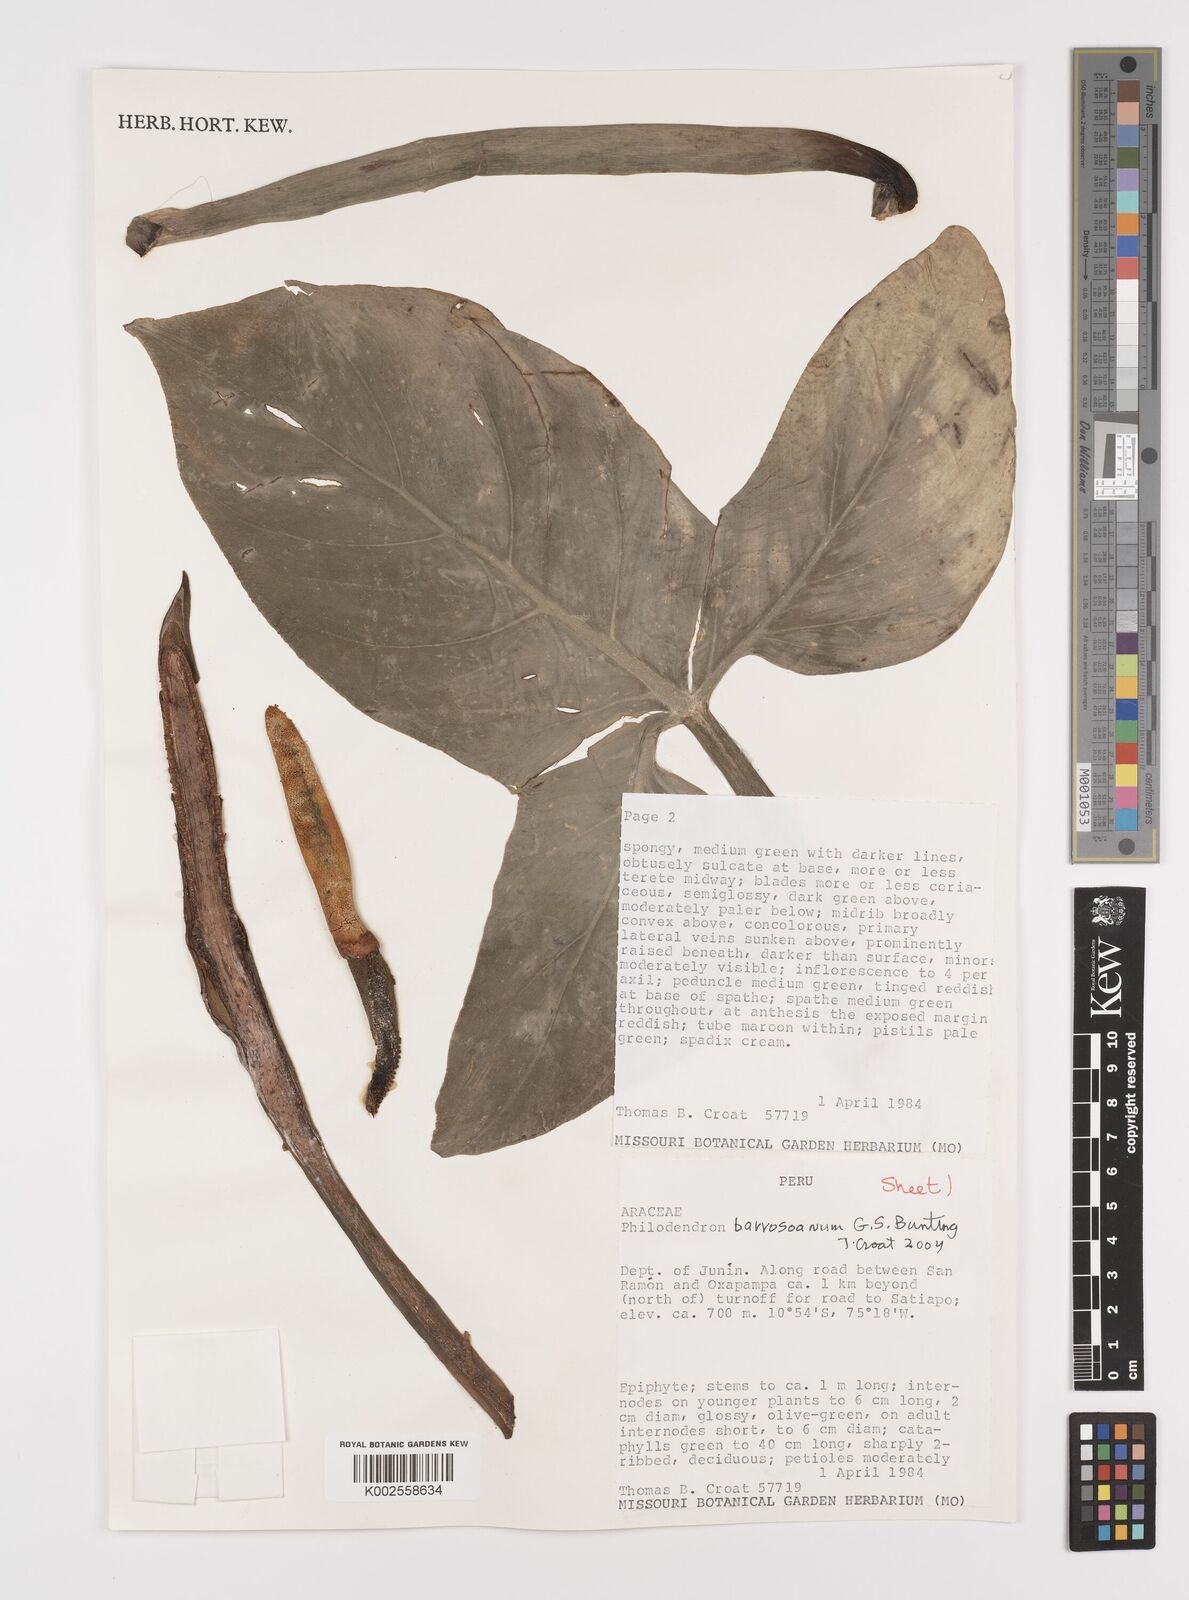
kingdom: Plantae
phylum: Tracheophyta
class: Liliopsida
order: Alismatales
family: Araceae
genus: Philodendron
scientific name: Philodendron barrosoanum
